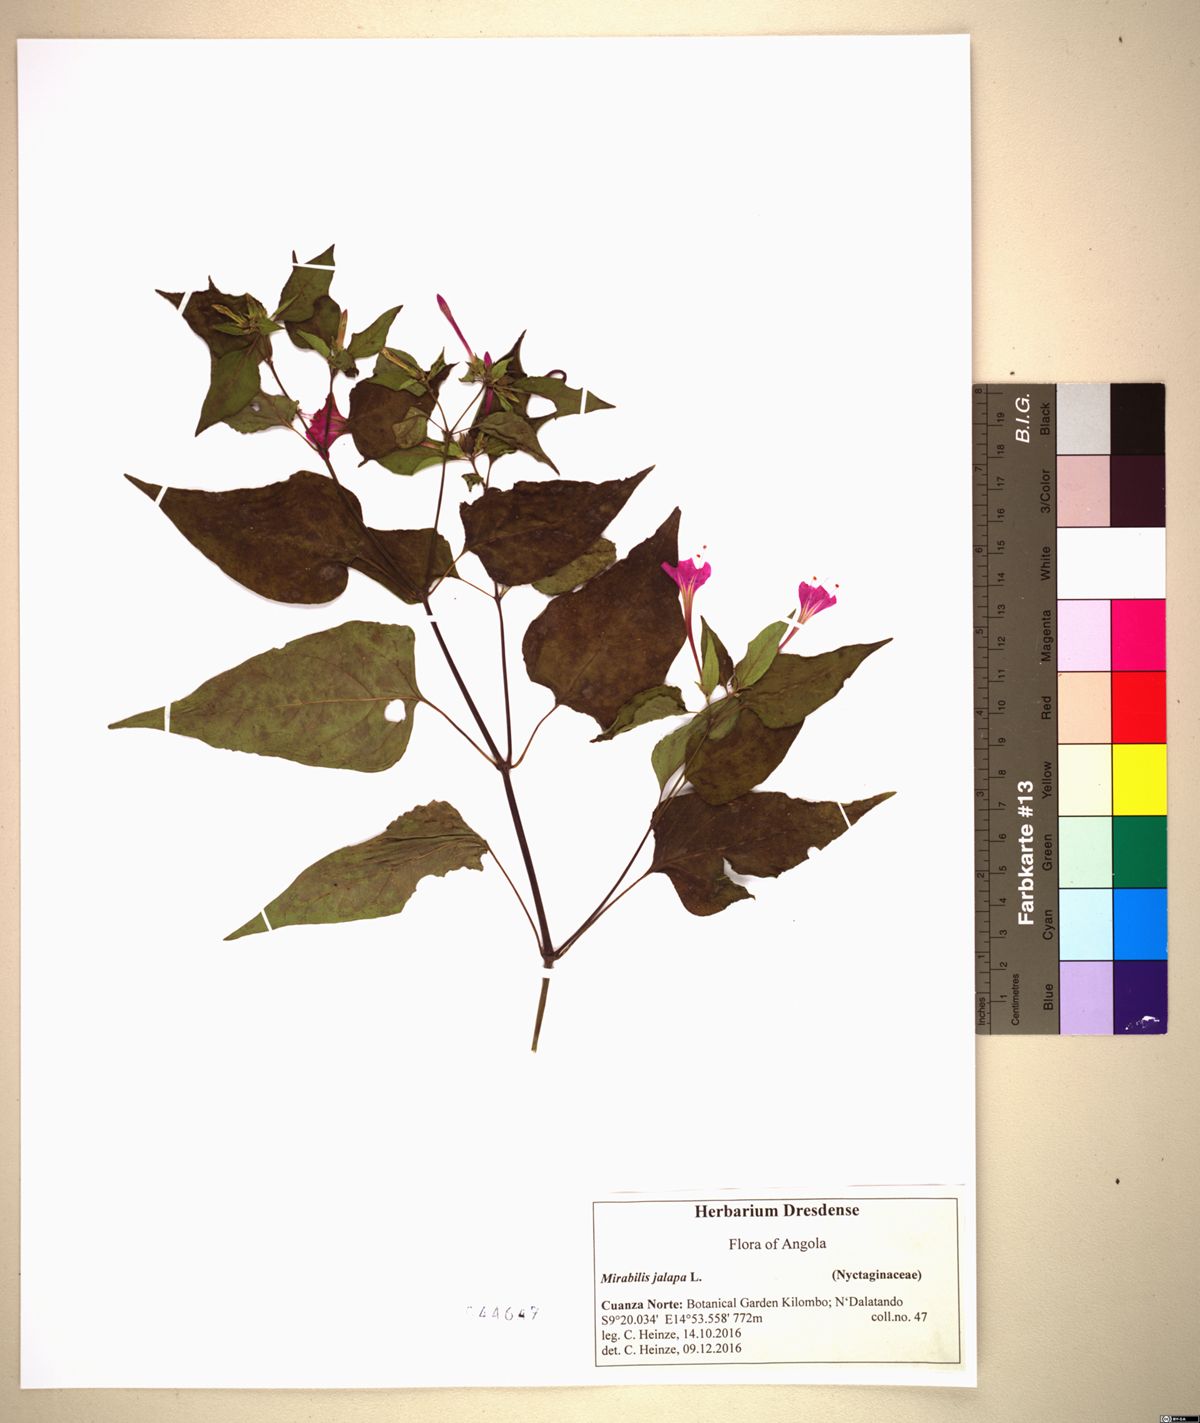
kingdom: Plantae
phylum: Tracheophyta
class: Magnoliopsida
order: Caryophyllales
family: Nyctaginaceae
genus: Mirabilis
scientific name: Mirabilis jalapa
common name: Marvel-of-peru
